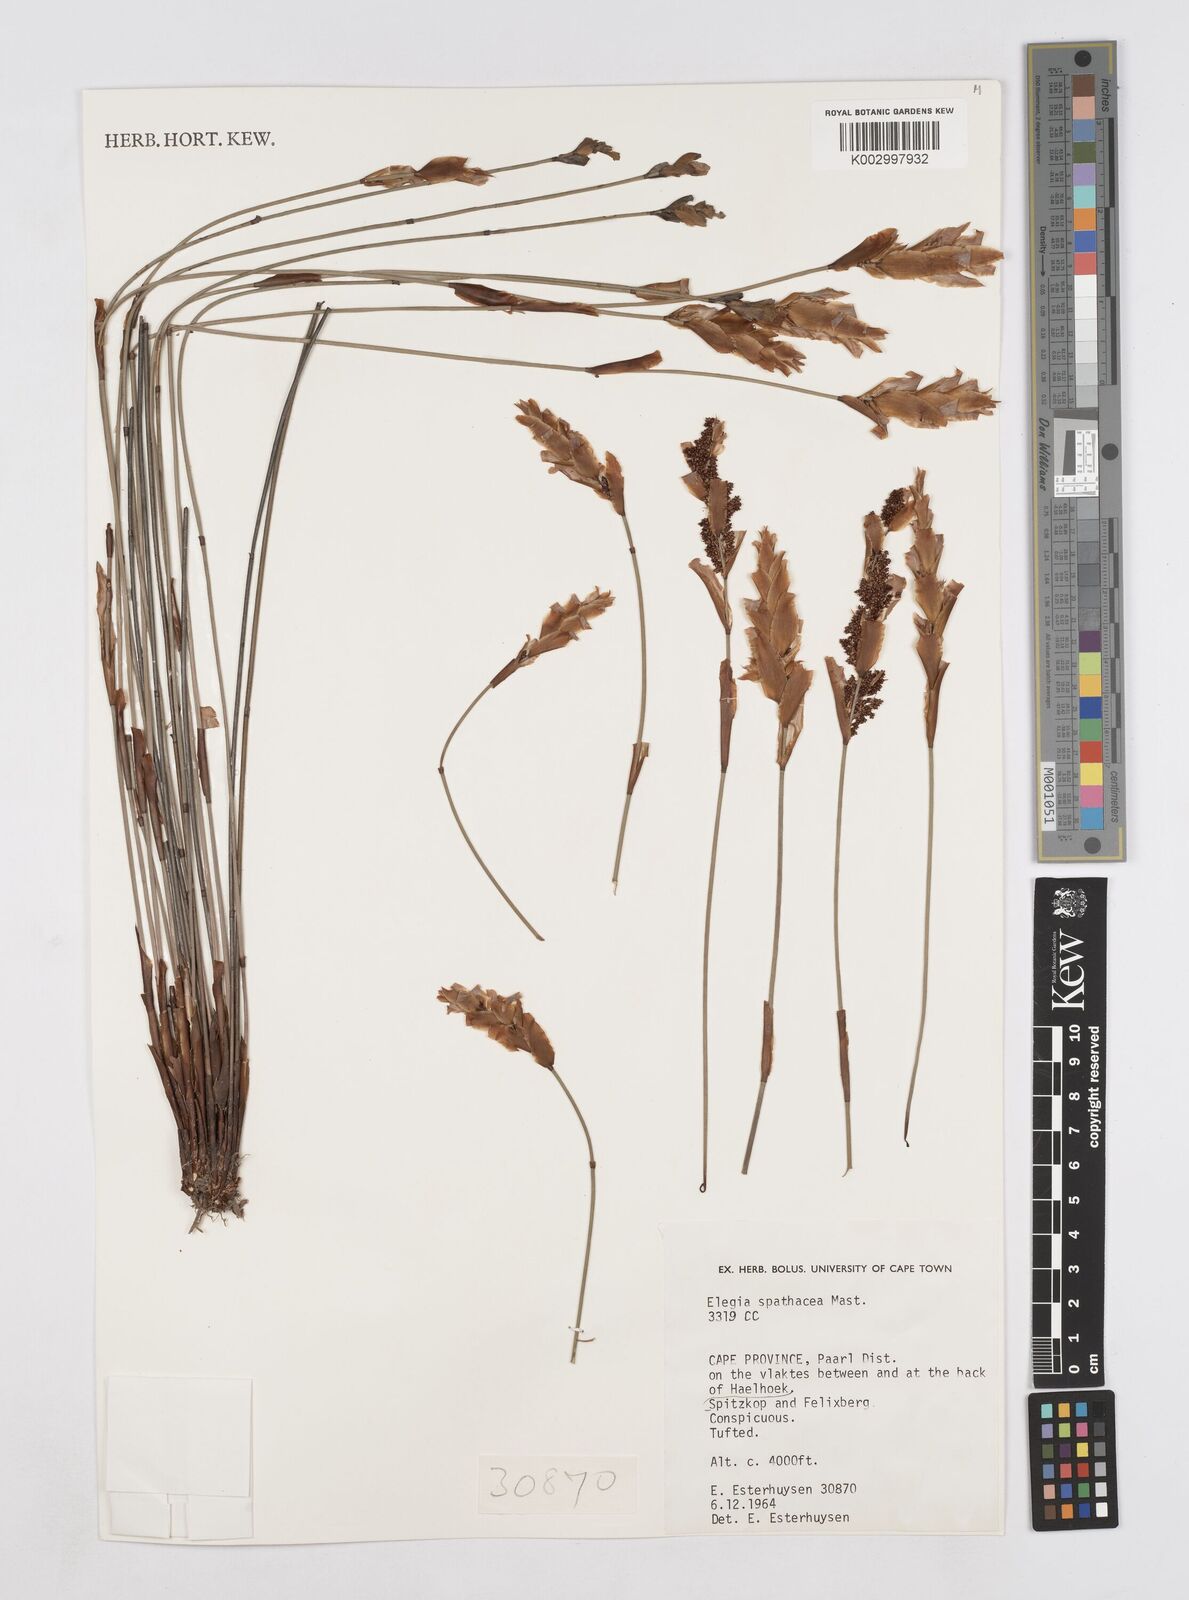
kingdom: Plantae
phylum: Tracheophyta
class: Liliopsida
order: Poales
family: Restionaceae
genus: Elegia
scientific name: Elegia spathacea
